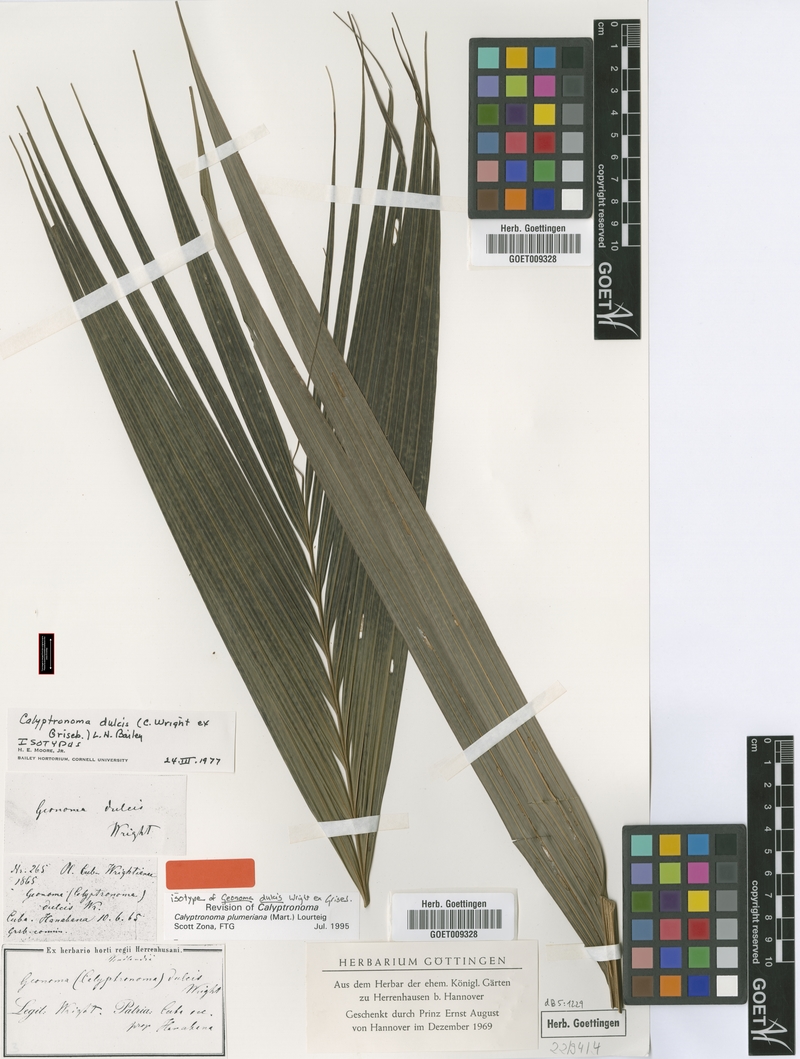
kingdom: Plantae
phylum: Tracheophyta
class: Liliopsida
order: Arecales
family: Arecaceae
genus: Calyptronoma
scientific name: Calyptronoma plumeriana
